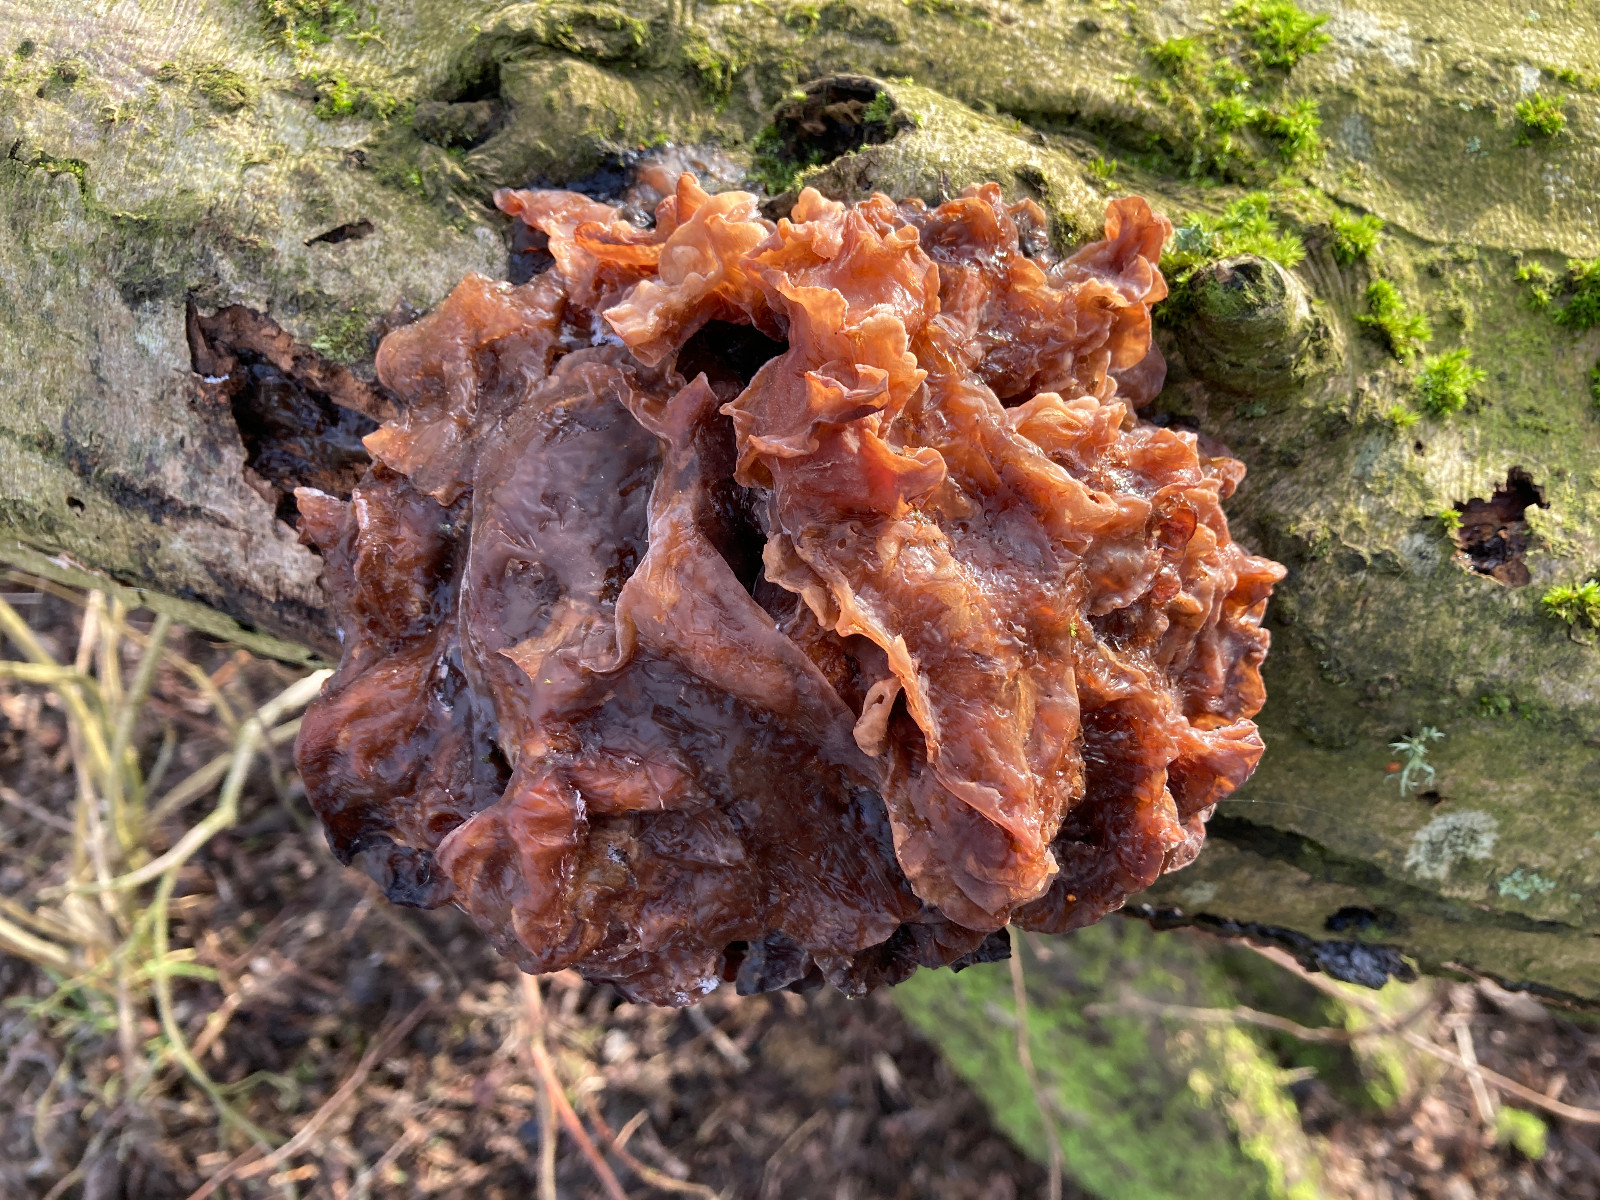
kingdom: Fungi
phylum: Basidiomycota
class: Tremellomycetes
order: Tremellales
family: Tremellaceae
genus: Phaeotremella
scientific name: Phaeotremella frondosa
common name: kæmpe-bævresvamp
